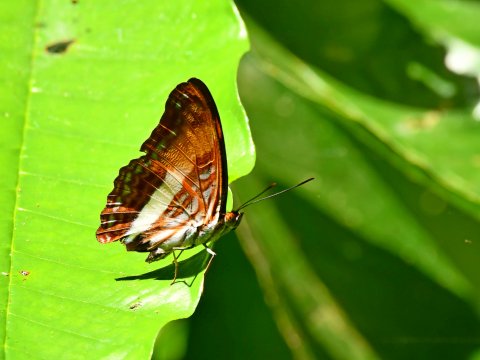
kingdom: Animalia
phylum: Arthropoda
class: Insecta
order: Lepidoptera
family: Nymphalidae
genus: Limenitis
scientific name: Limenitis cocala
